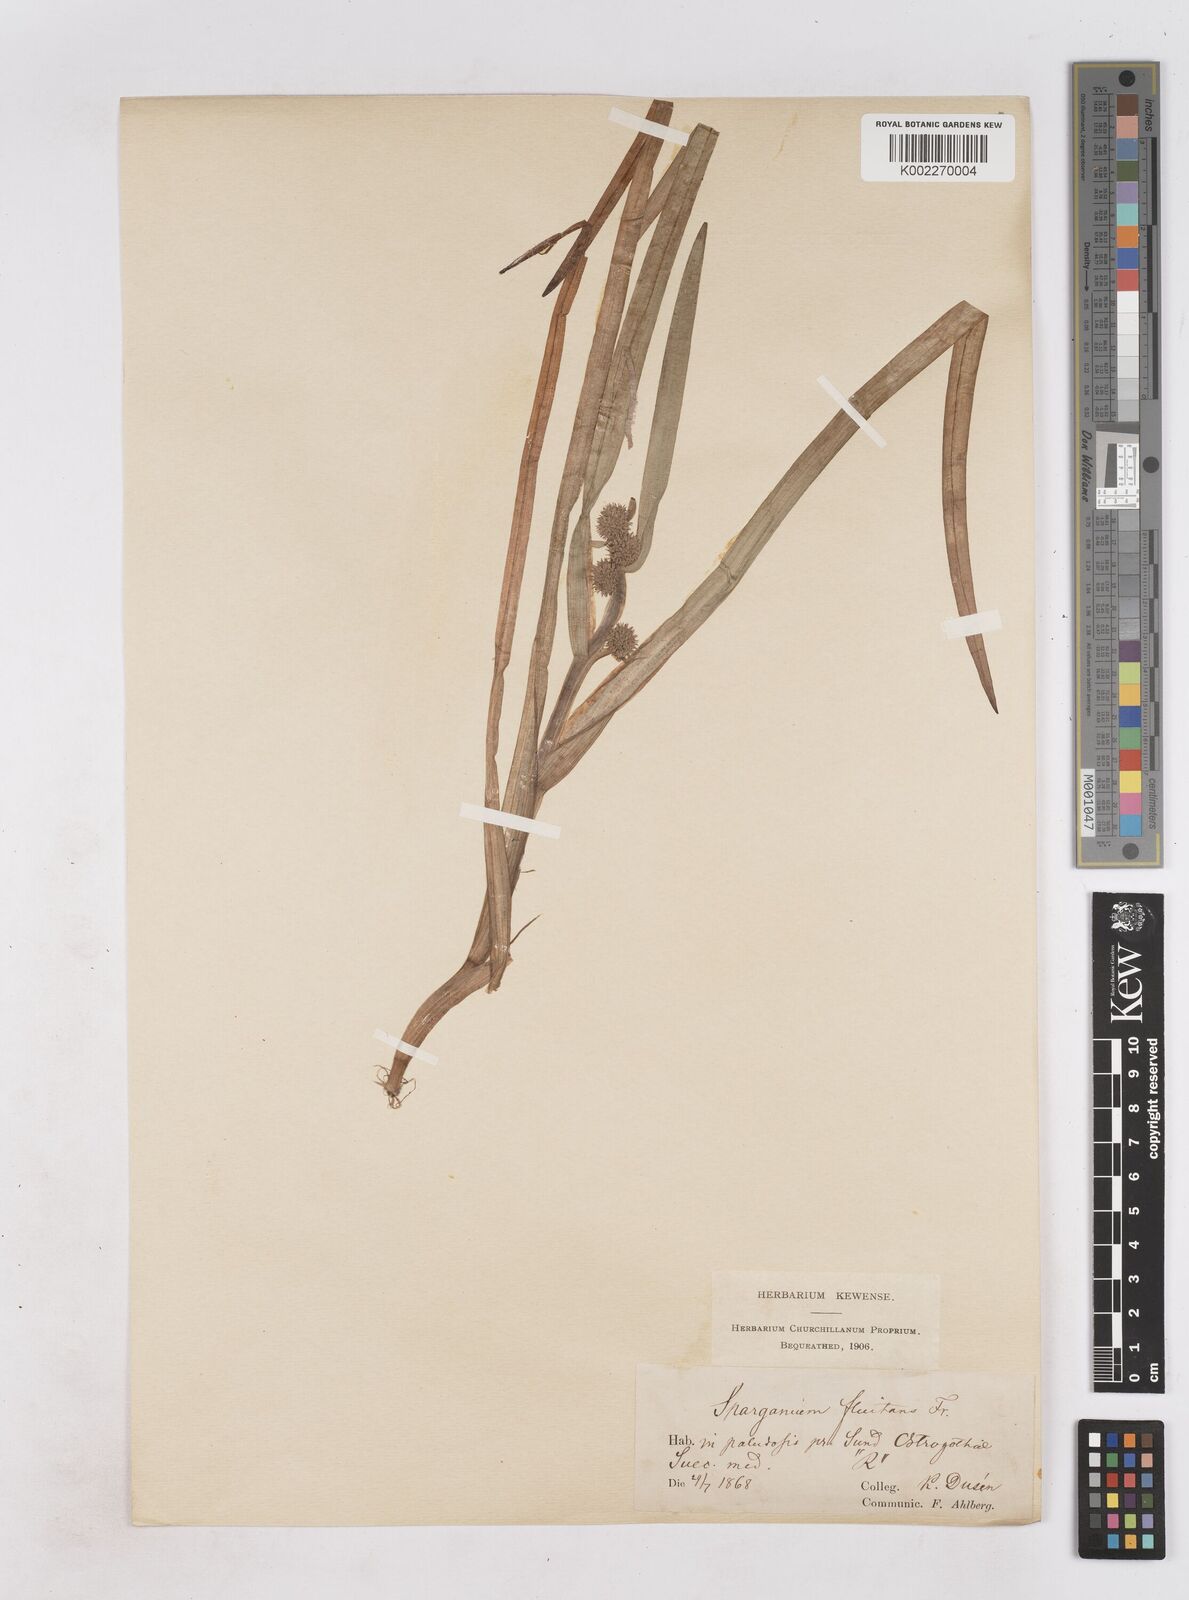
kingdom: Plantae
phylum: Tracheophyta
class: Liliopsida
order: Poales
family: Typhaceae
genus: Sparganium
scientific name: Sparganium angustifolium
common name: Floating bur-reed
